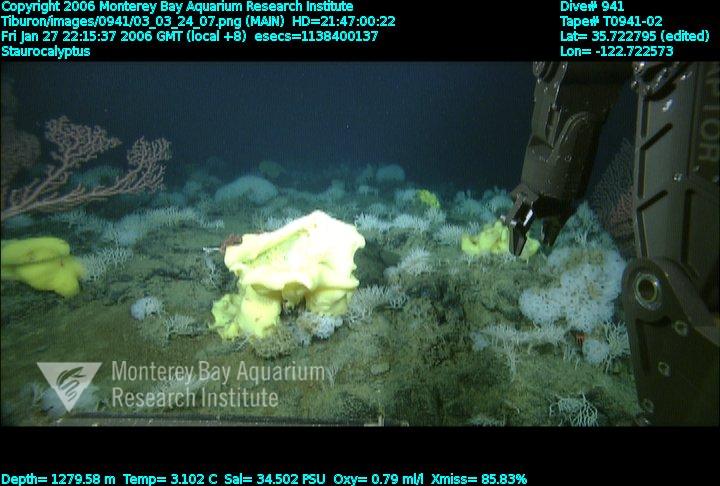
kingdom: Animalia
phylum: Porifera
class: Hexactinellida
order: Lyssacinosida
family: Rossellidae
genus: Staurocalyptus
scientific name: Staurocalyptus
